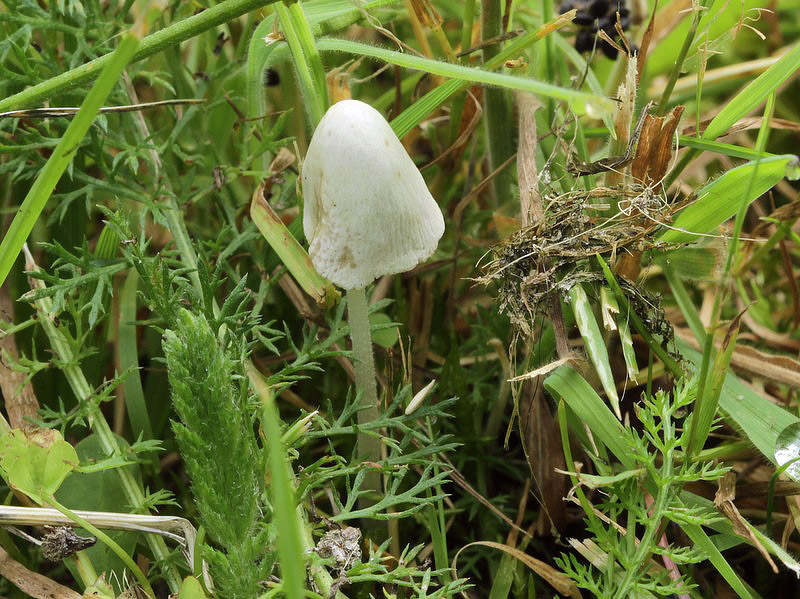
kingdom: Fungi
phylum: Basidiomycota
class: Agaricomycetes
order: Agaricales
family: Bolbitiaceae
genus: Conocybe
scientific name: Conocybe apala
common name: mælkehvid keglehat
